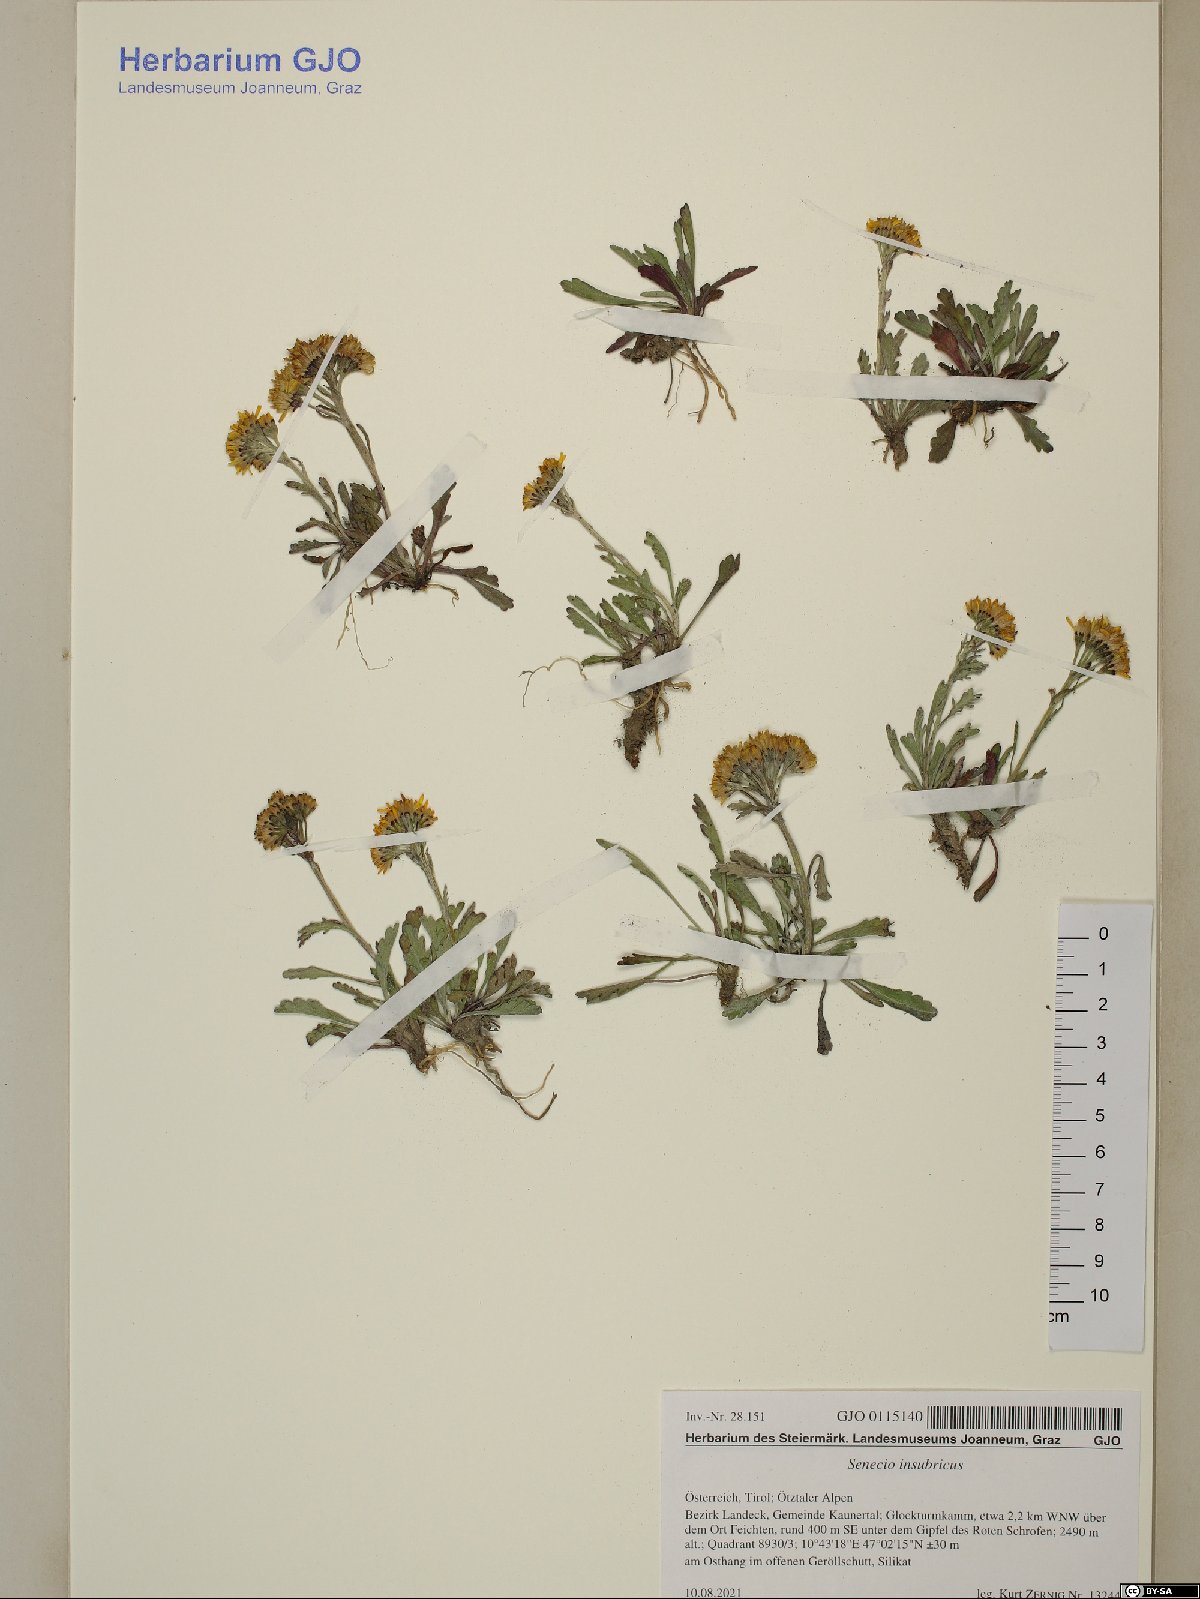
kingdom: Plantae
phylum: Tracheophyta
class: Magnoliopsida
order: Asterales
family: Asteraceae
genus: Jacobaea
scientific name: Jacobaea insubrica
